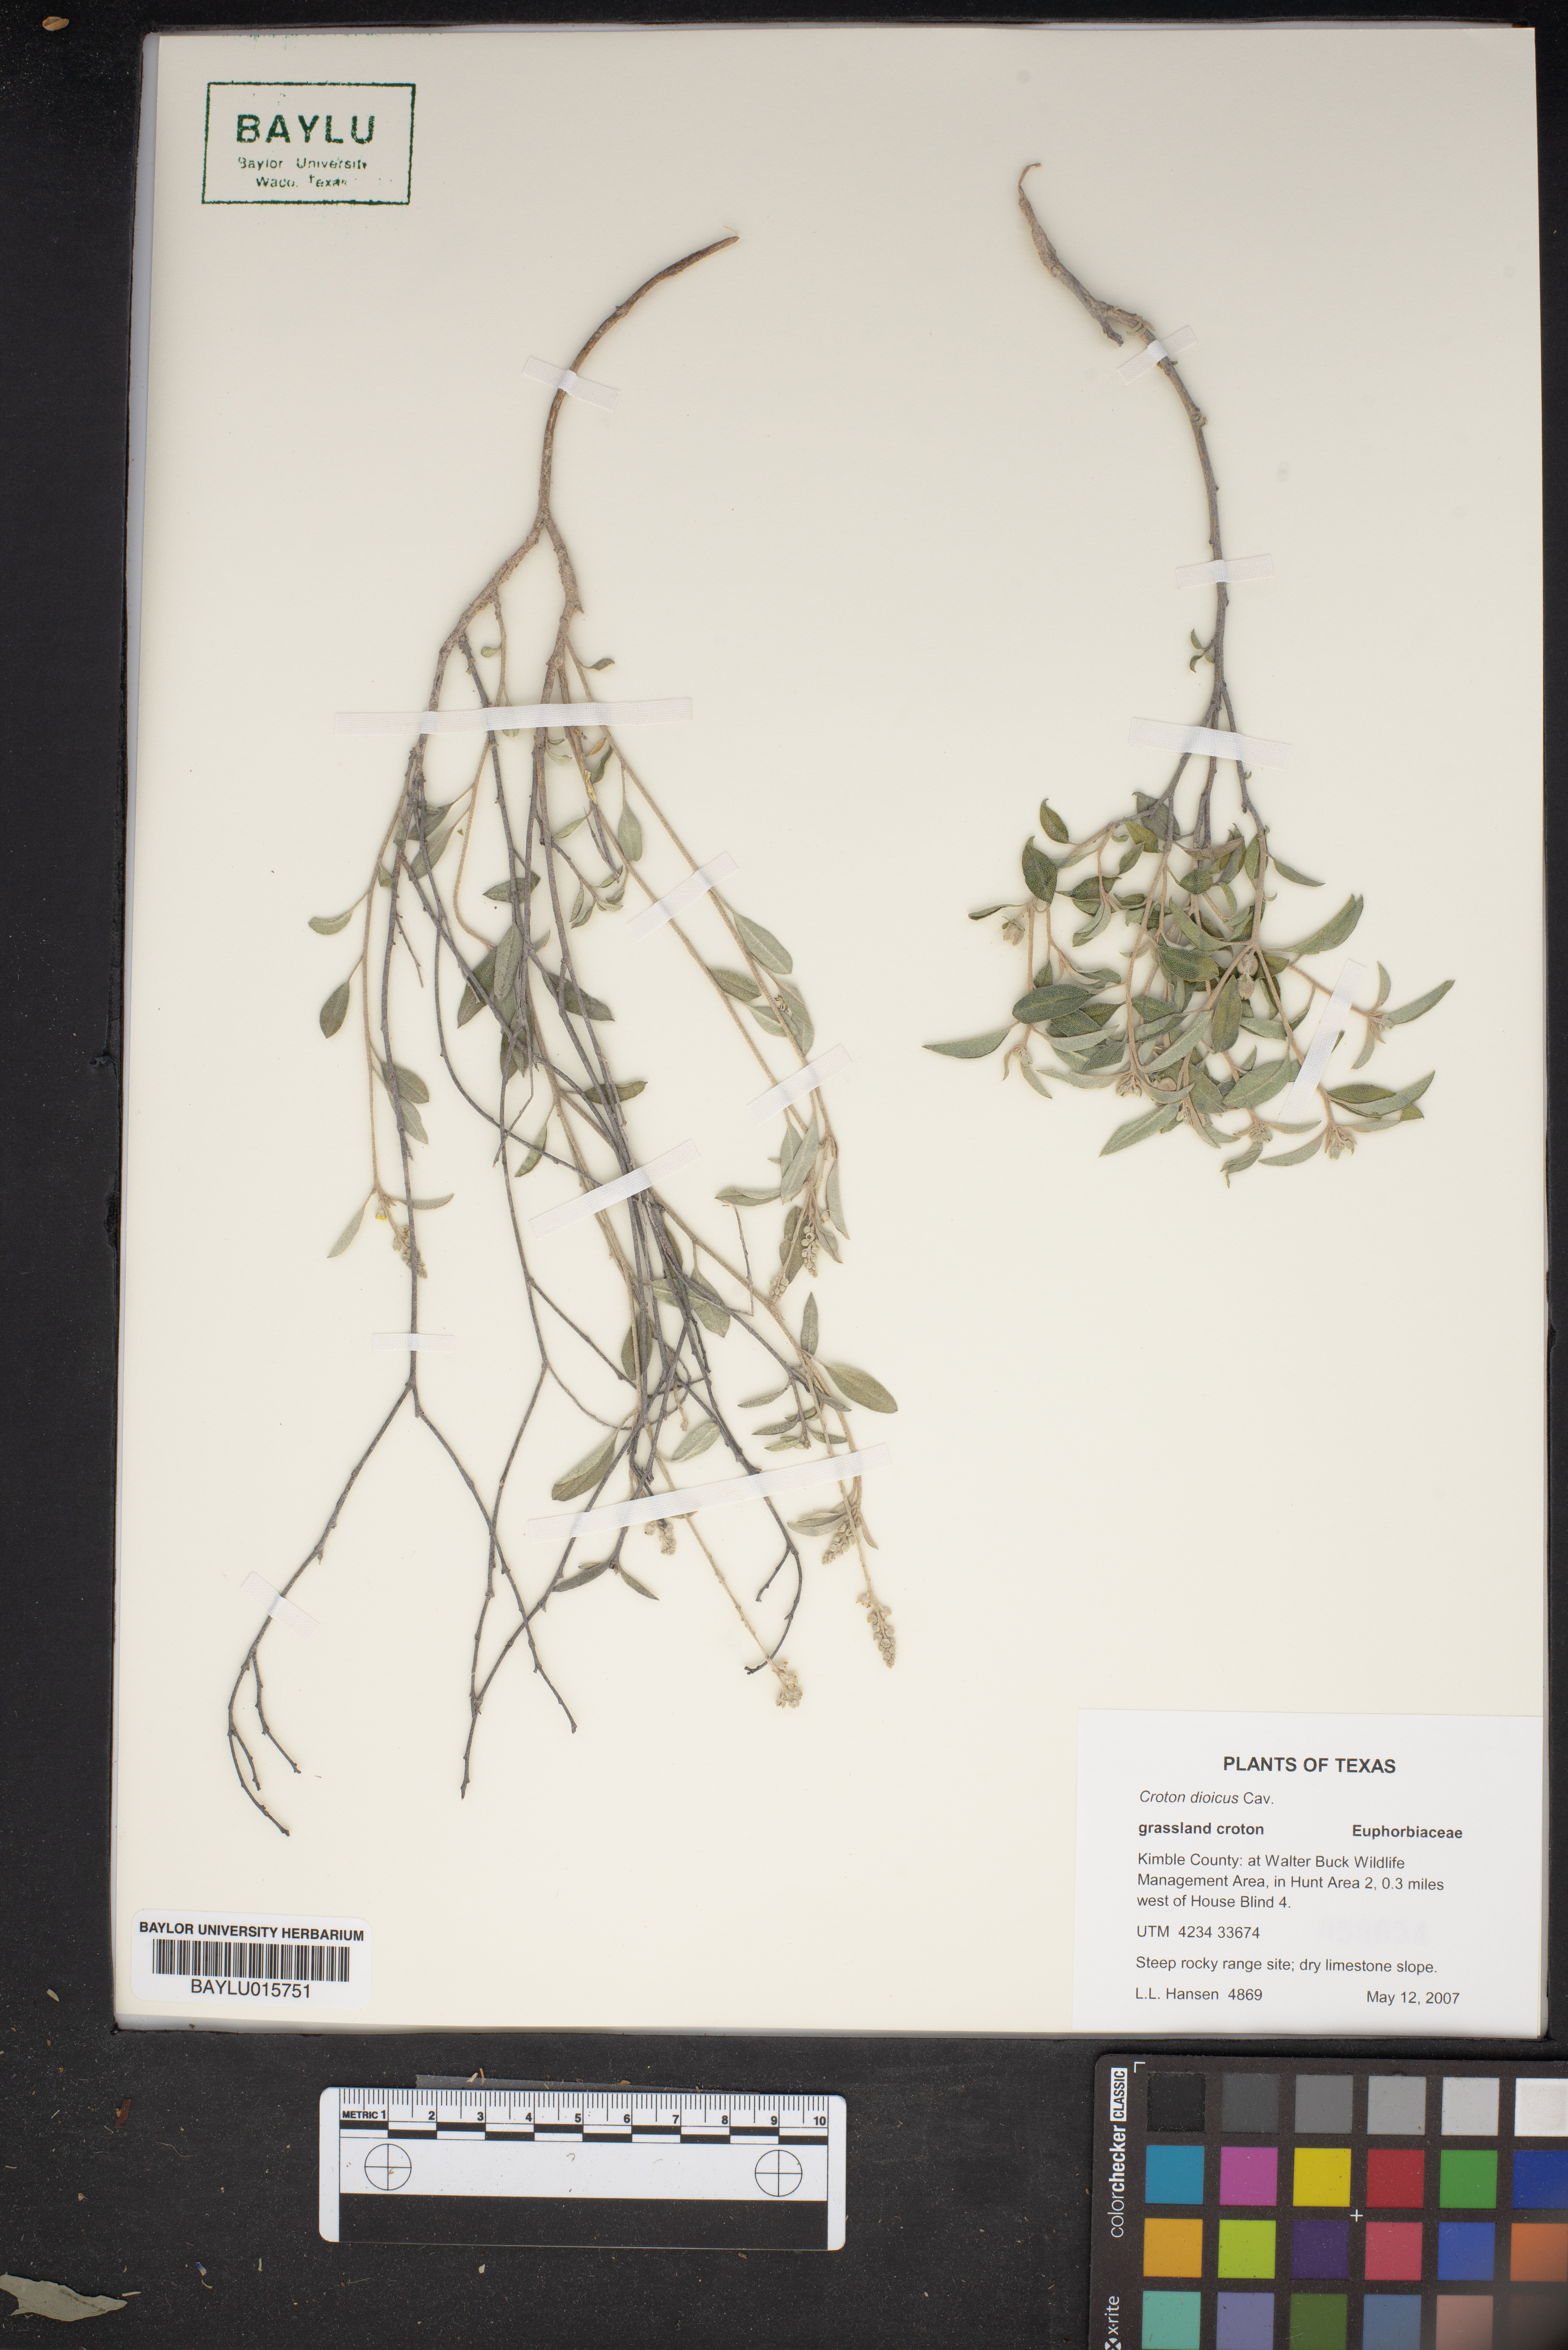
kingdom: Plantae
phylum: Tracheophyta
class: Magnoliopsida
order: Malpighiales
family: Euphorbiaceae
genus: Croton
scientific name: Croton dioicus
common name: Grassland croton
